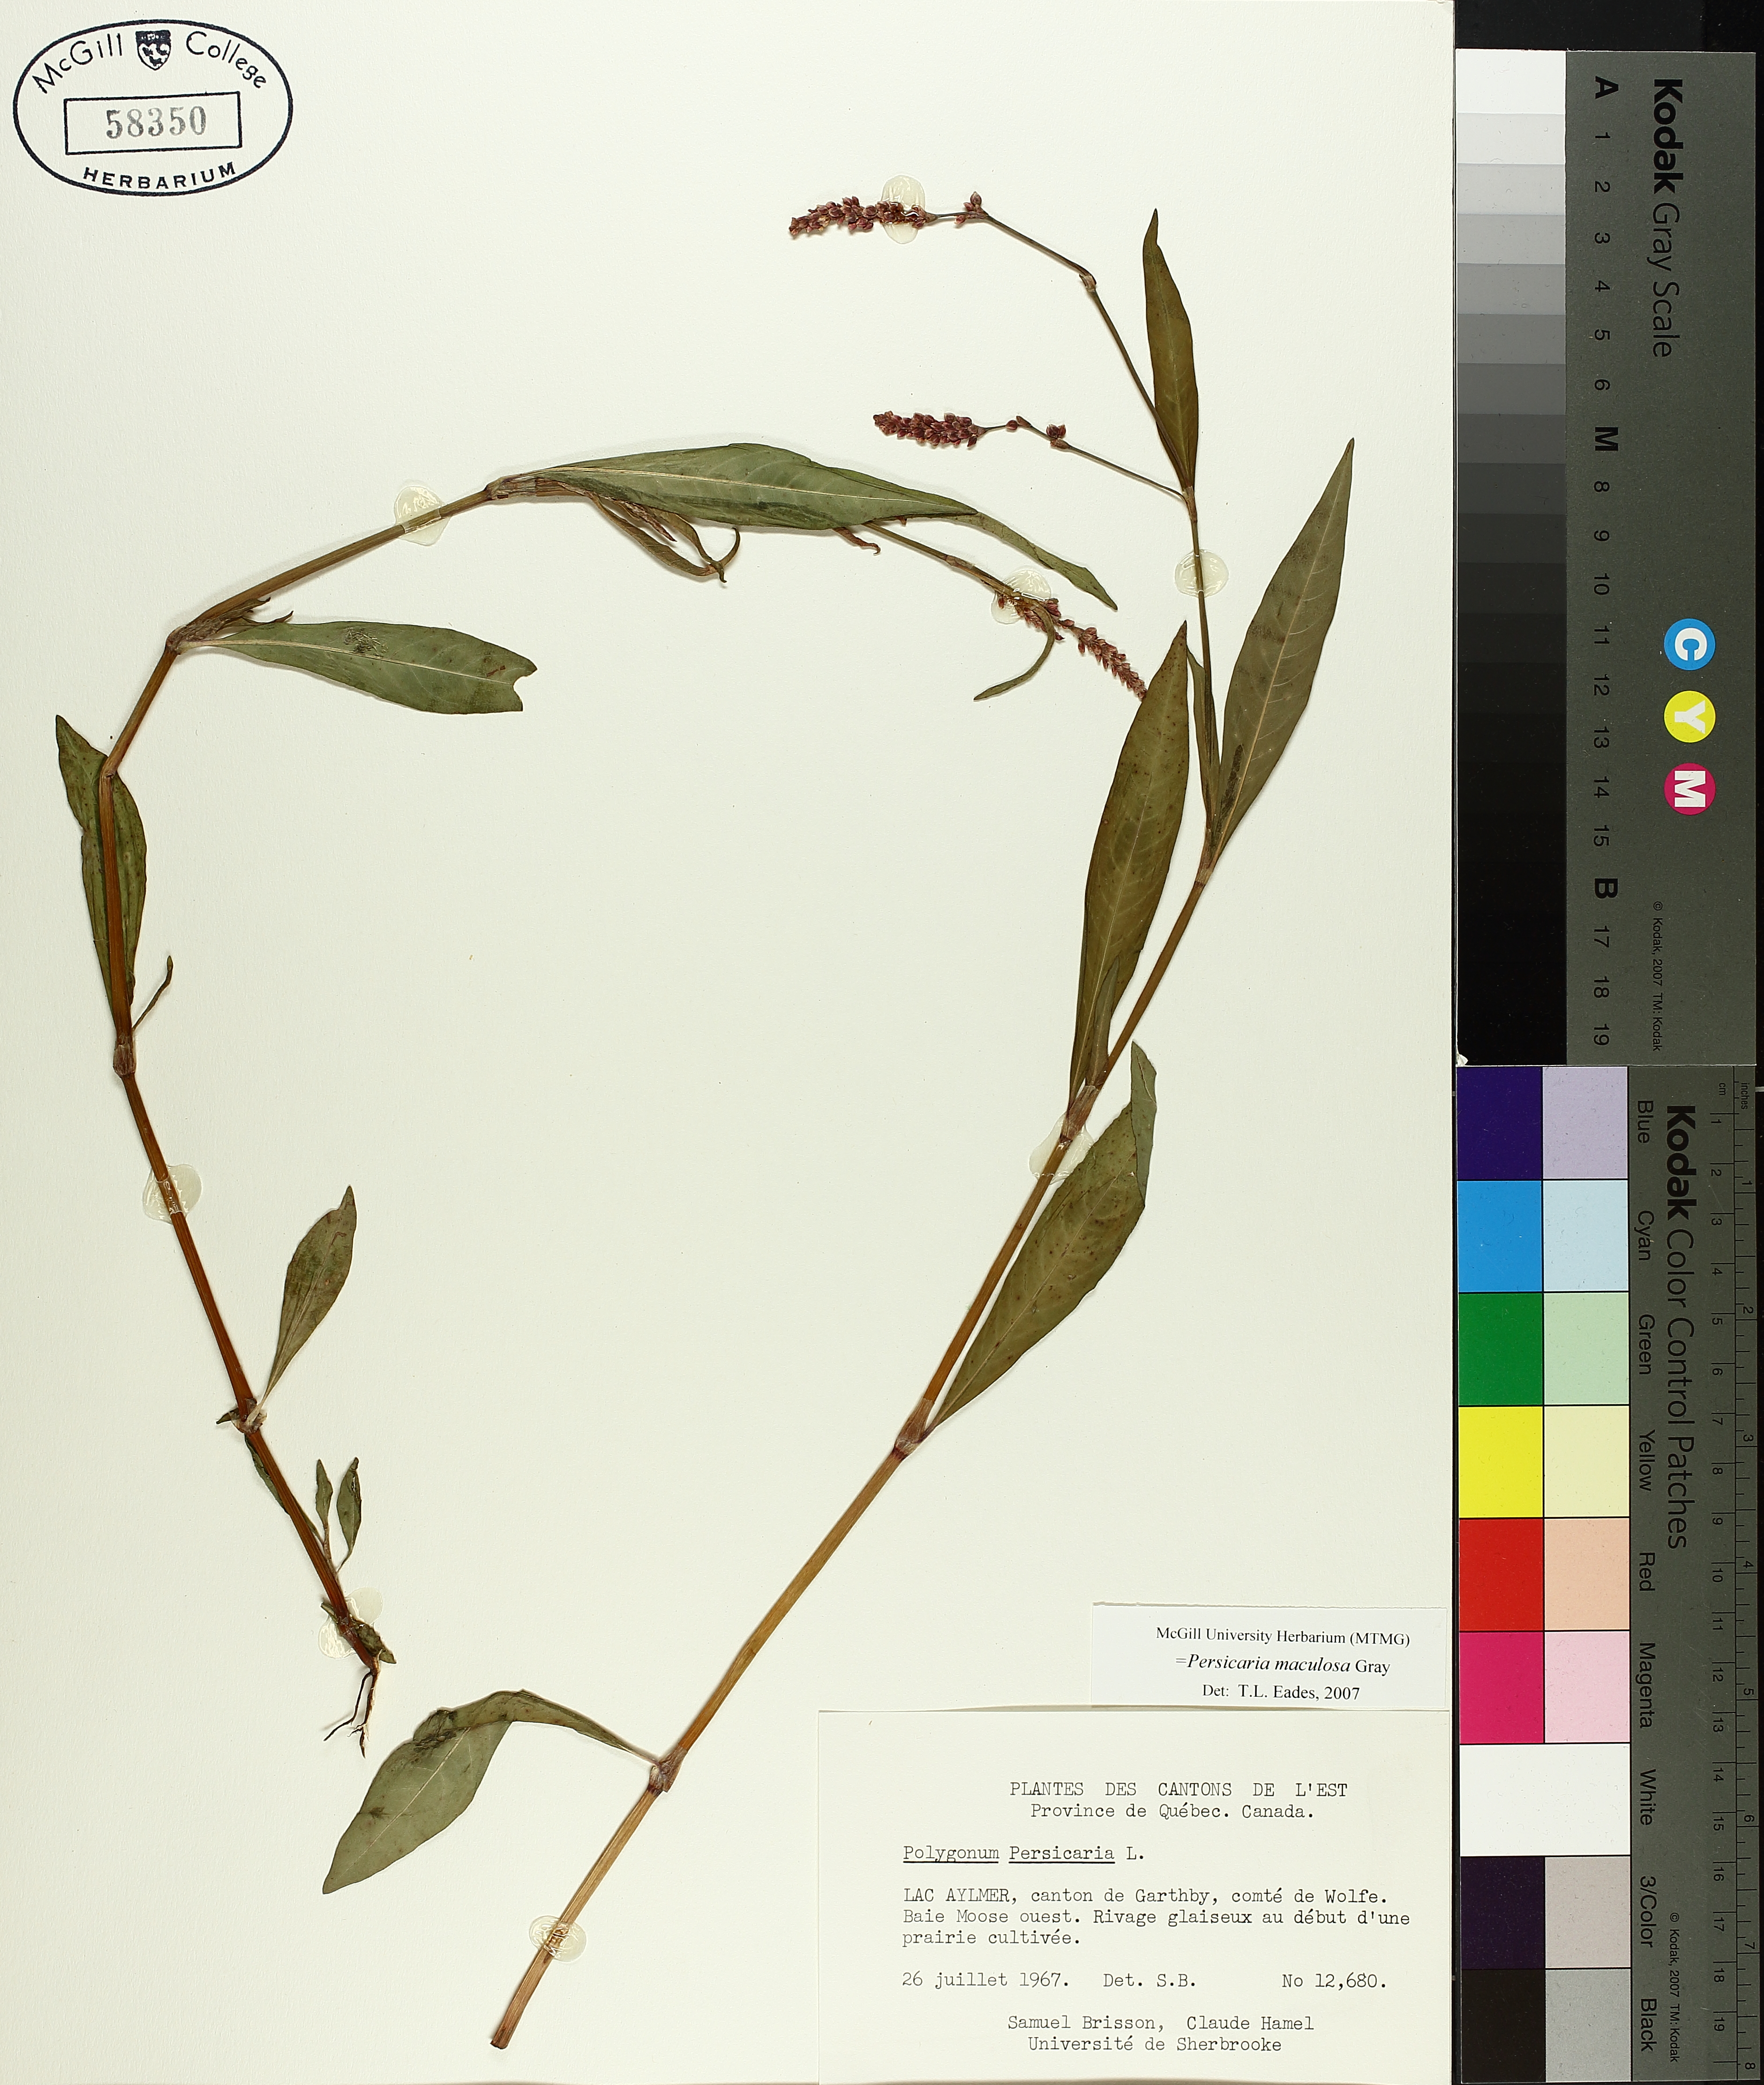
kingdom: Plantae
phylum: Tracheophyta
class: Magnoliopsida
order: Caryophyllales
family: Polygonaceae
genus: Persicaria
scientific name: Persicaria maculosa
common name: Redshank
